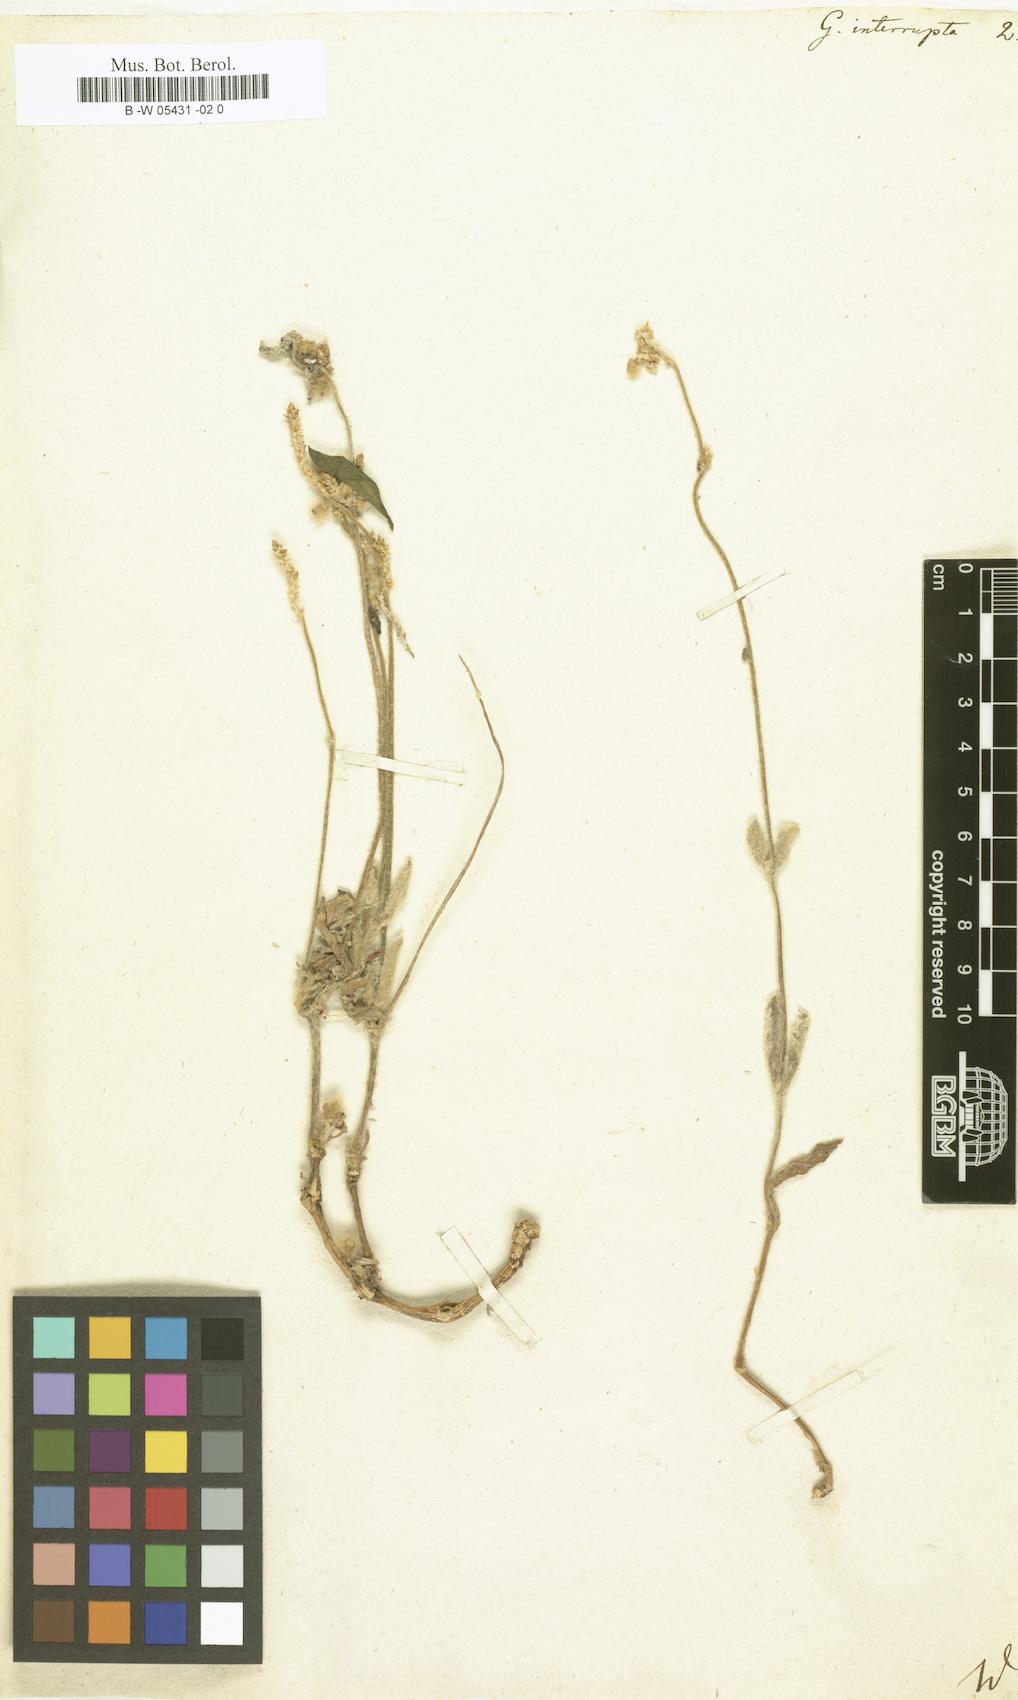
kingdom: Plantae
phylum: Tracheophyta
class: Magnoliopsida
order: Caryophyllales
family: Amaranthaceae
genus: Froelichia
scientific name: Froelichia interrupta
